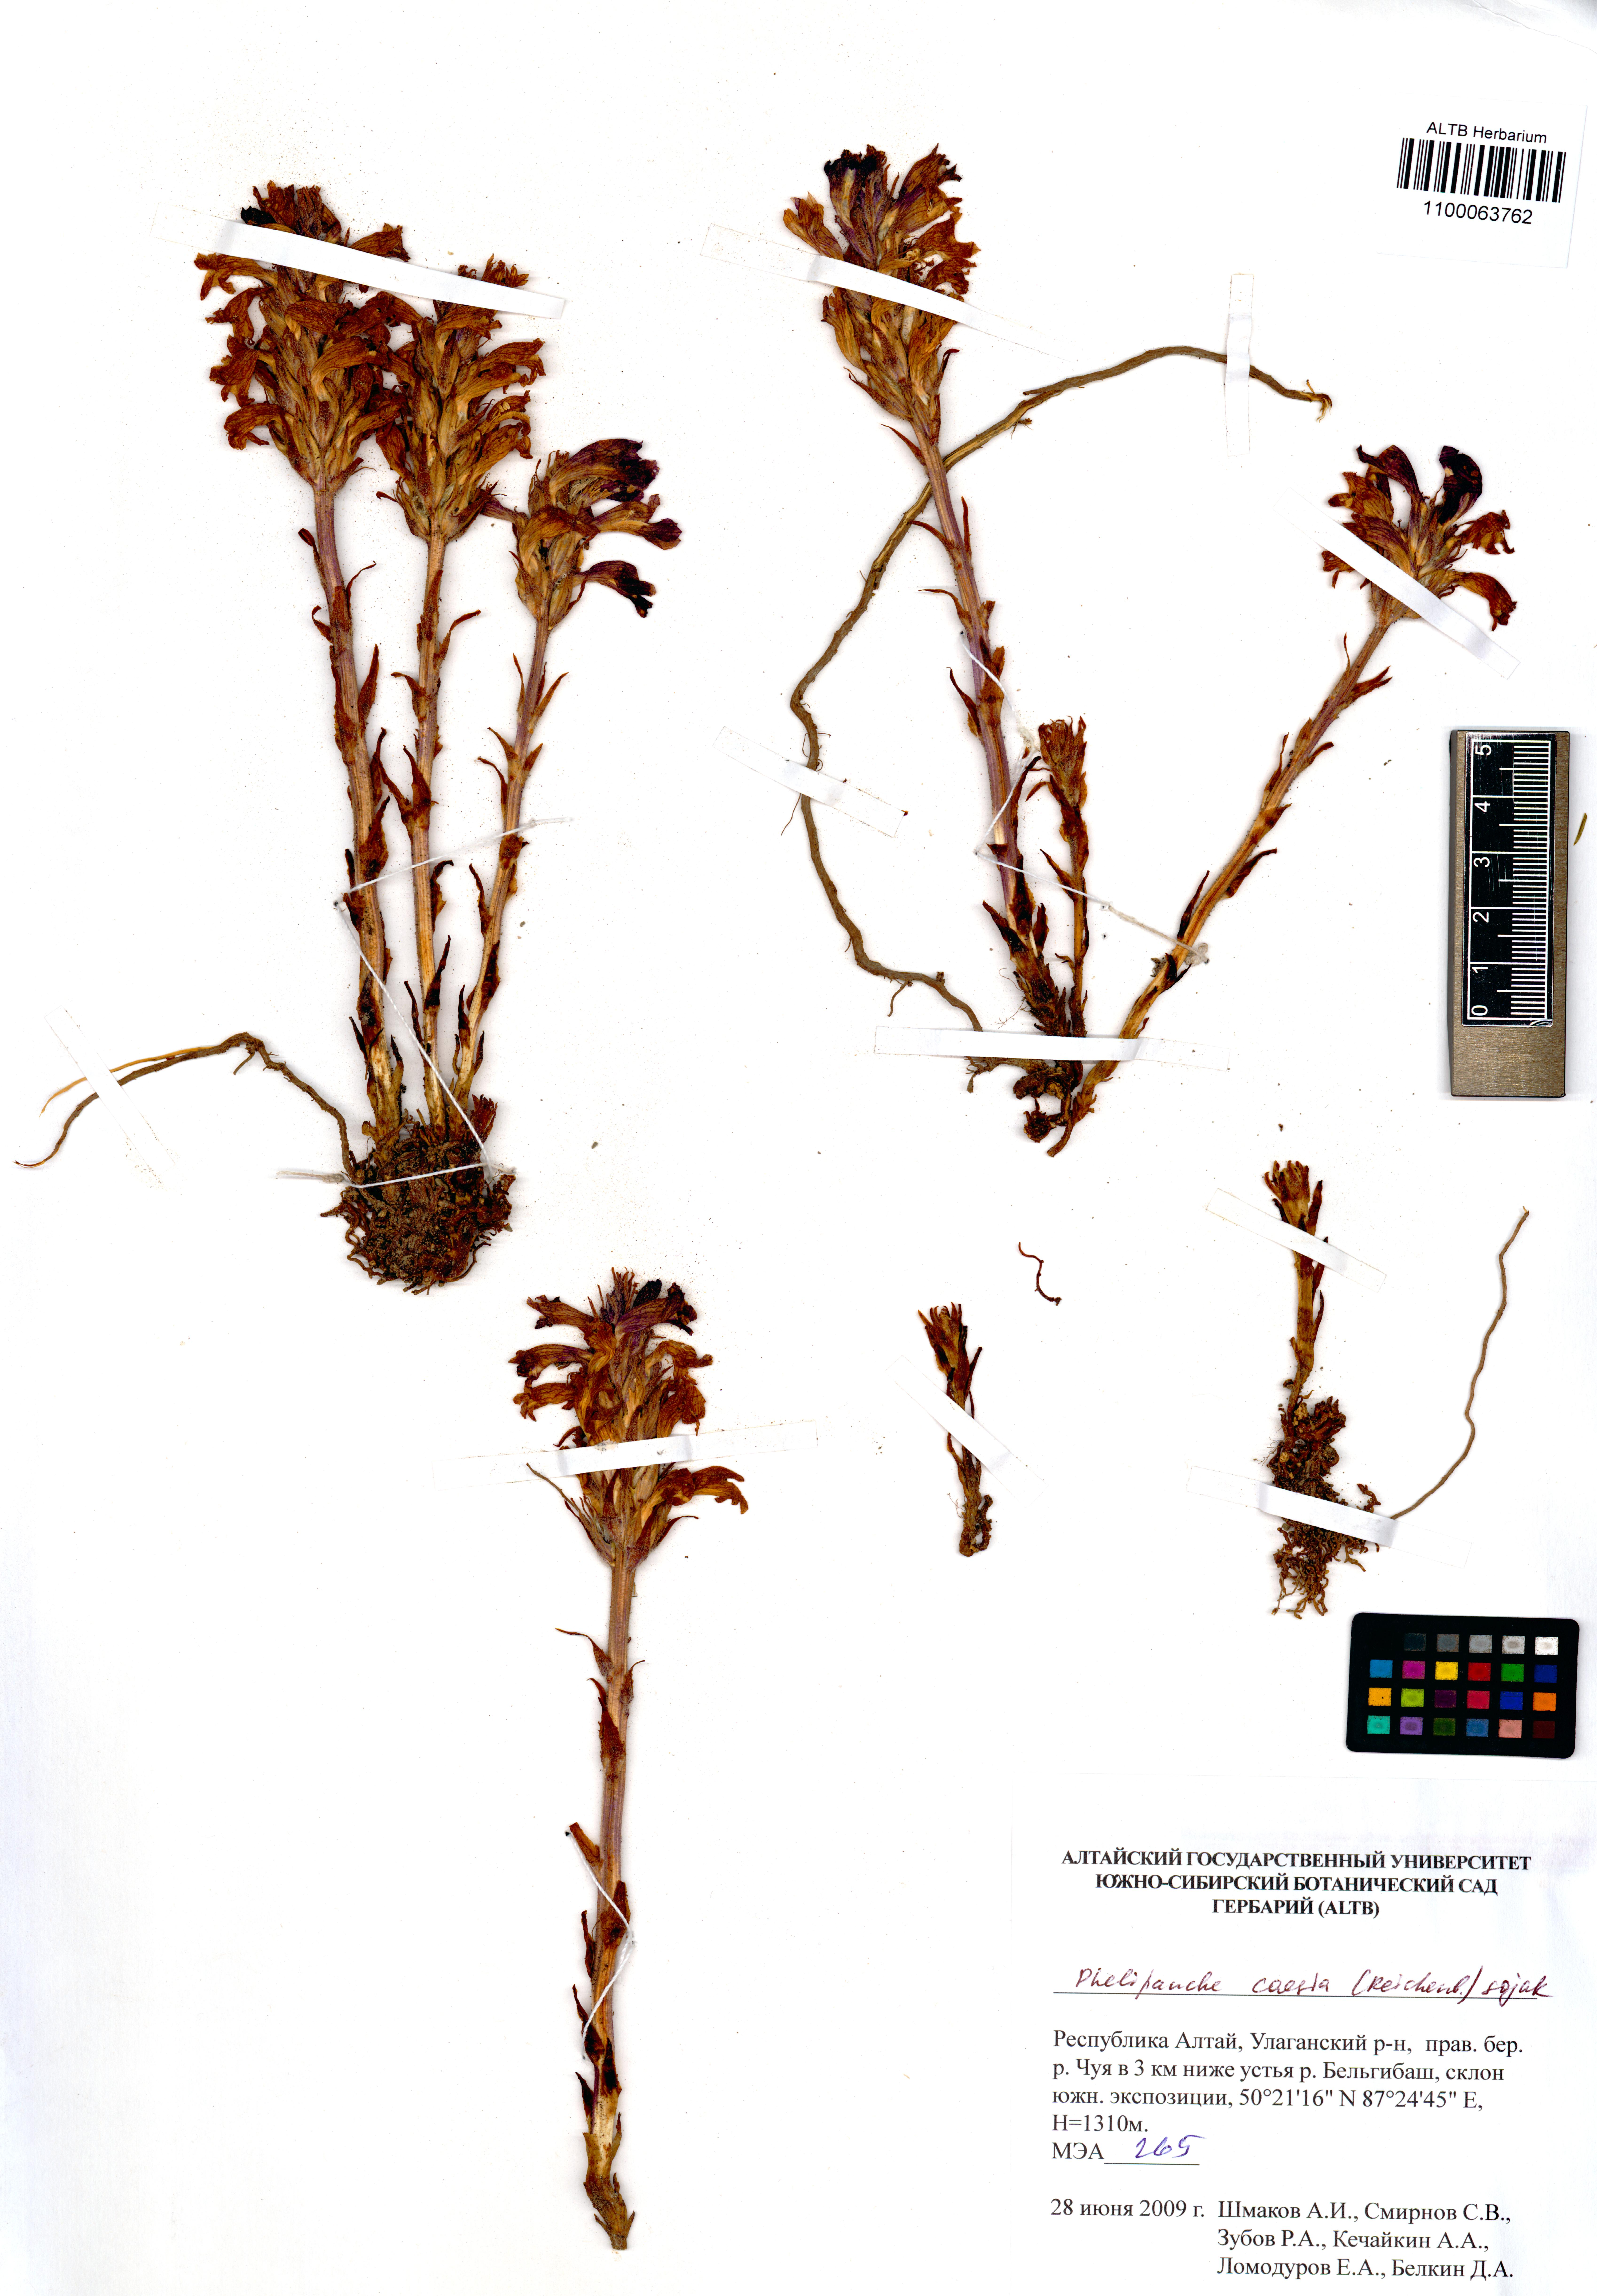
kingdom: Plantae
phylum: Tracheophyta
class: Magnoliopsida
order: Lamiales
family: Orobanchaceae
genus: Phelipanche
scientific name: Phelipanche caesia
